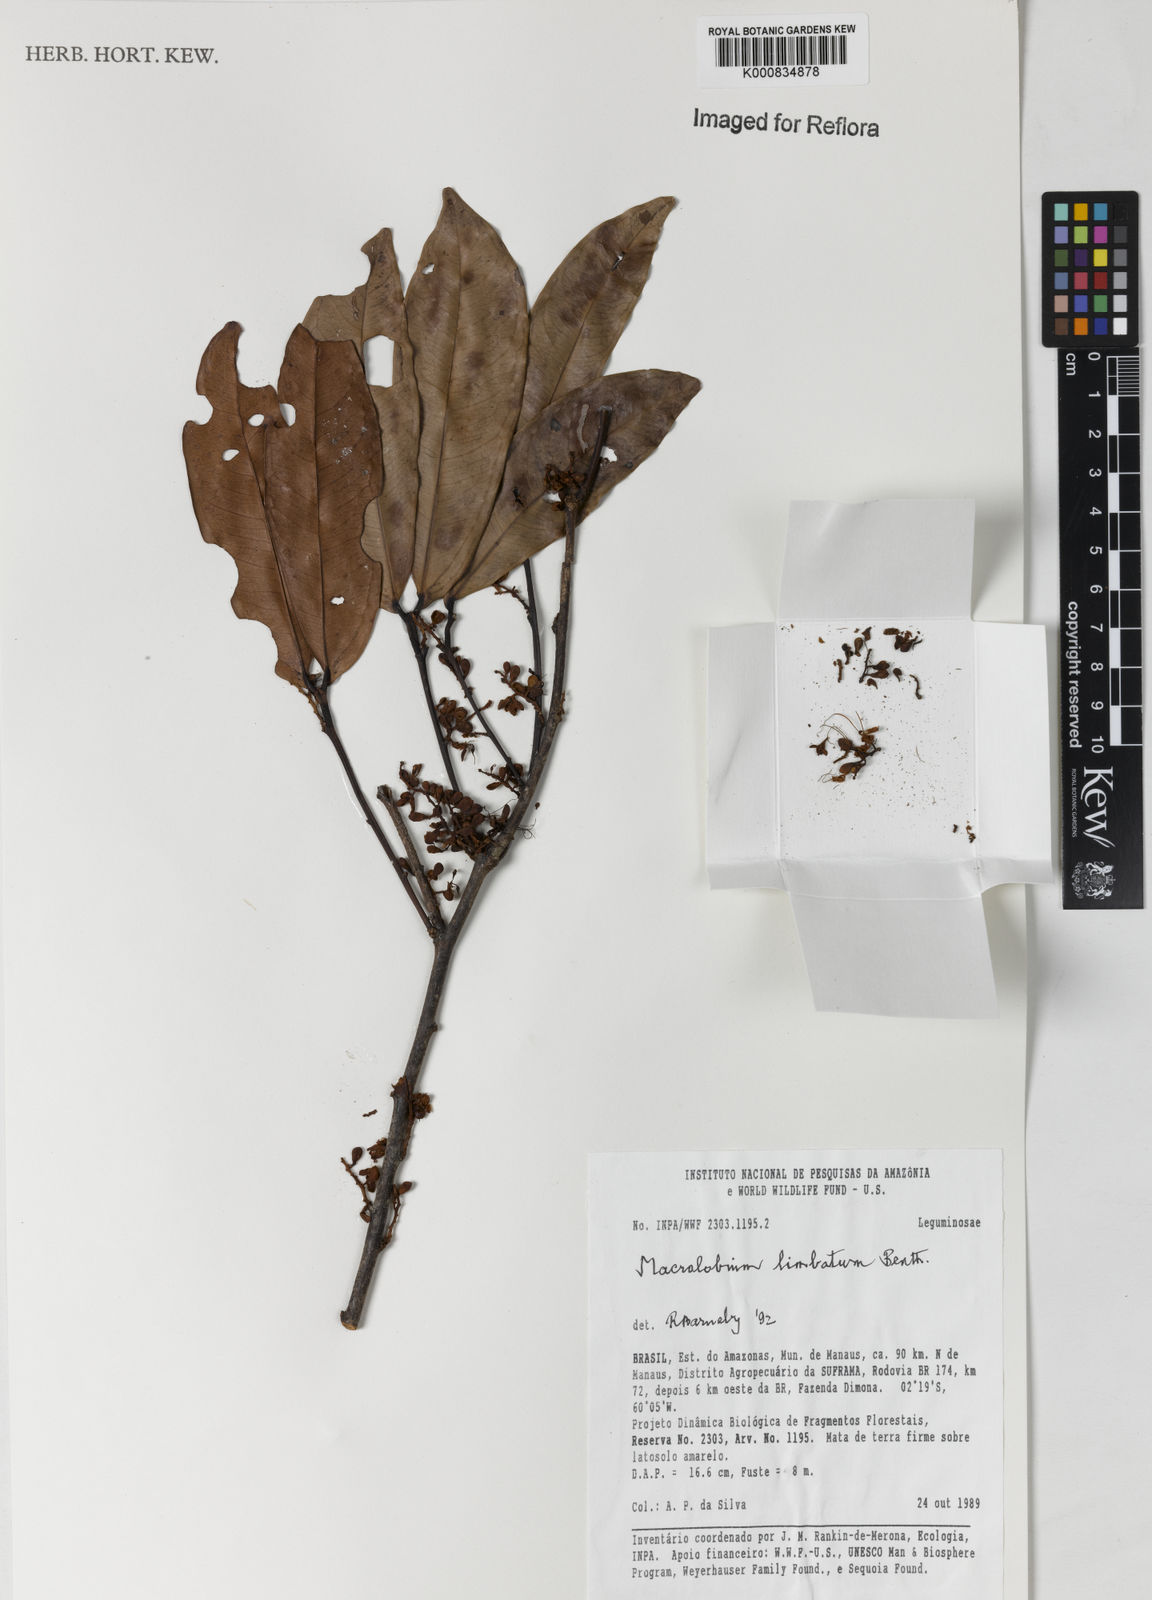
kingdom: Plantae
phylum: Tracheophyta
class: Magnoliopsida
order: Fabales
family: Fabaceae
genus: Macrolobium
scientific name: Macrolobium limbatum
